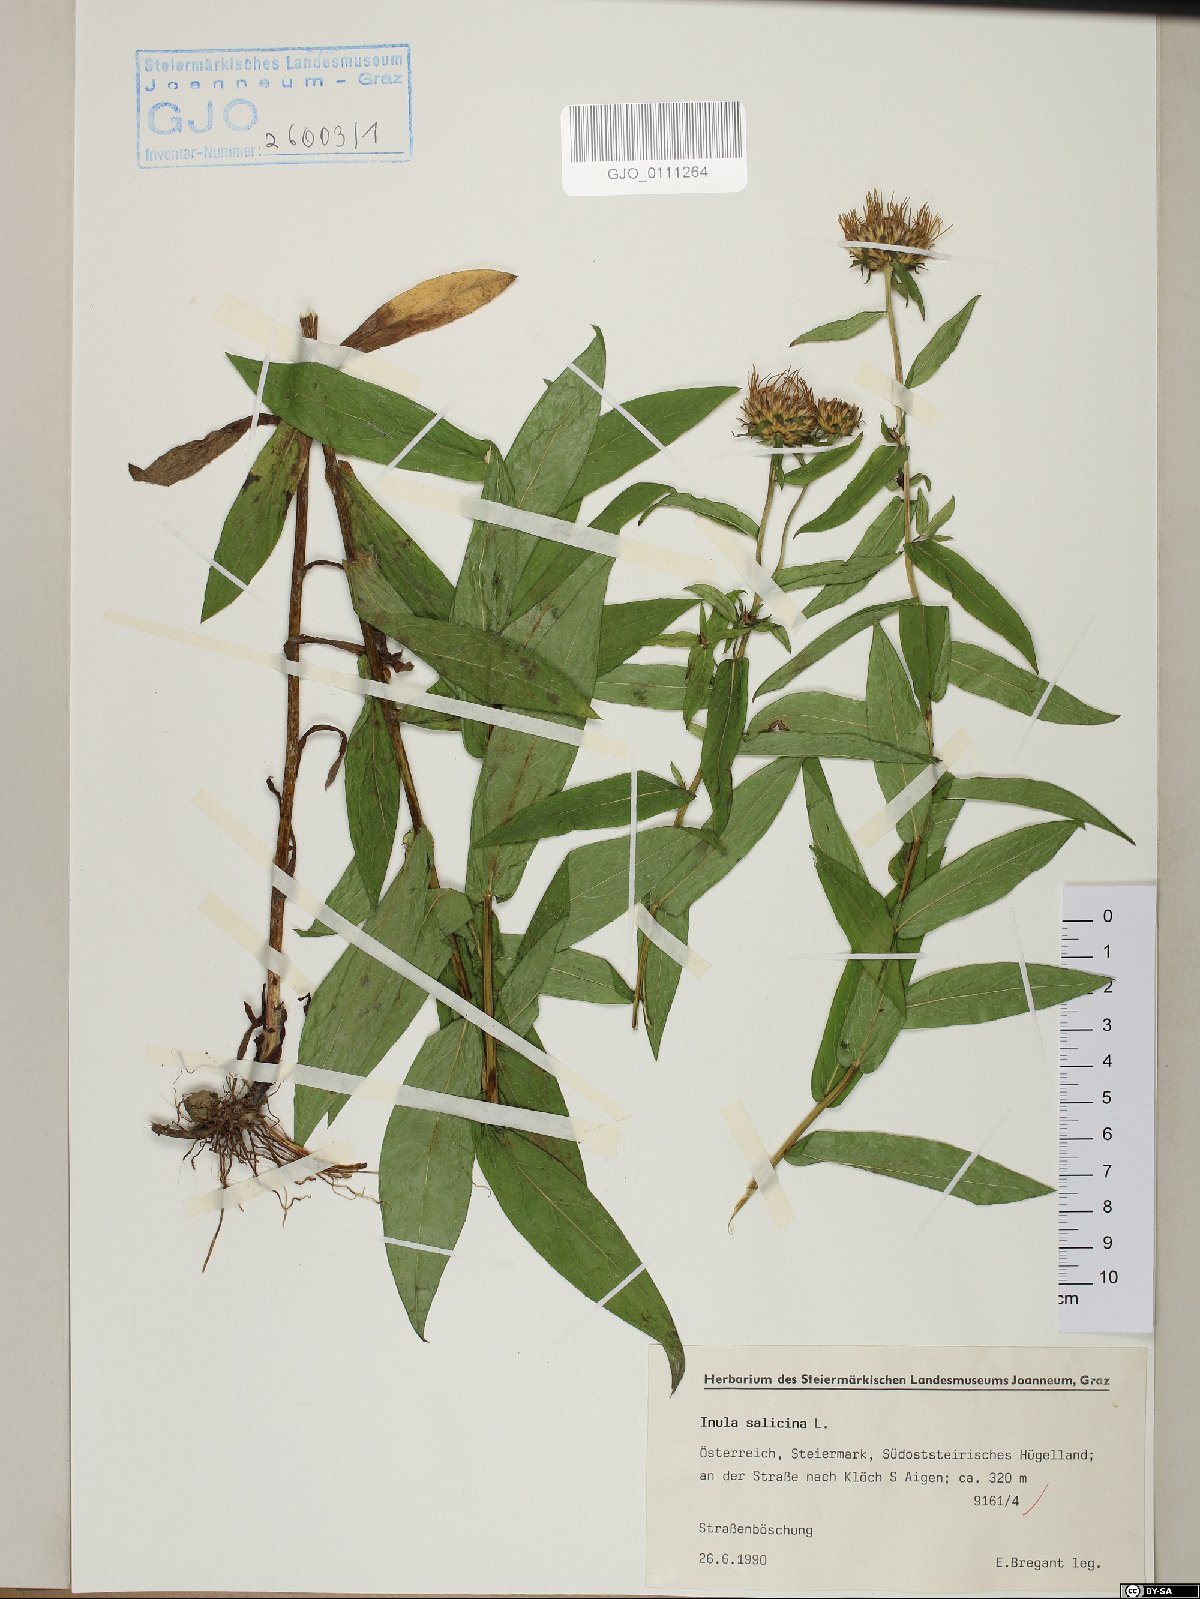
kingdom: Plantae
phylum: Tracheophyta
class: Magnoliopsida
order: Asterales
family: Asteraceae
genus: Pentanema
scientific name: Pentanema salicinum
